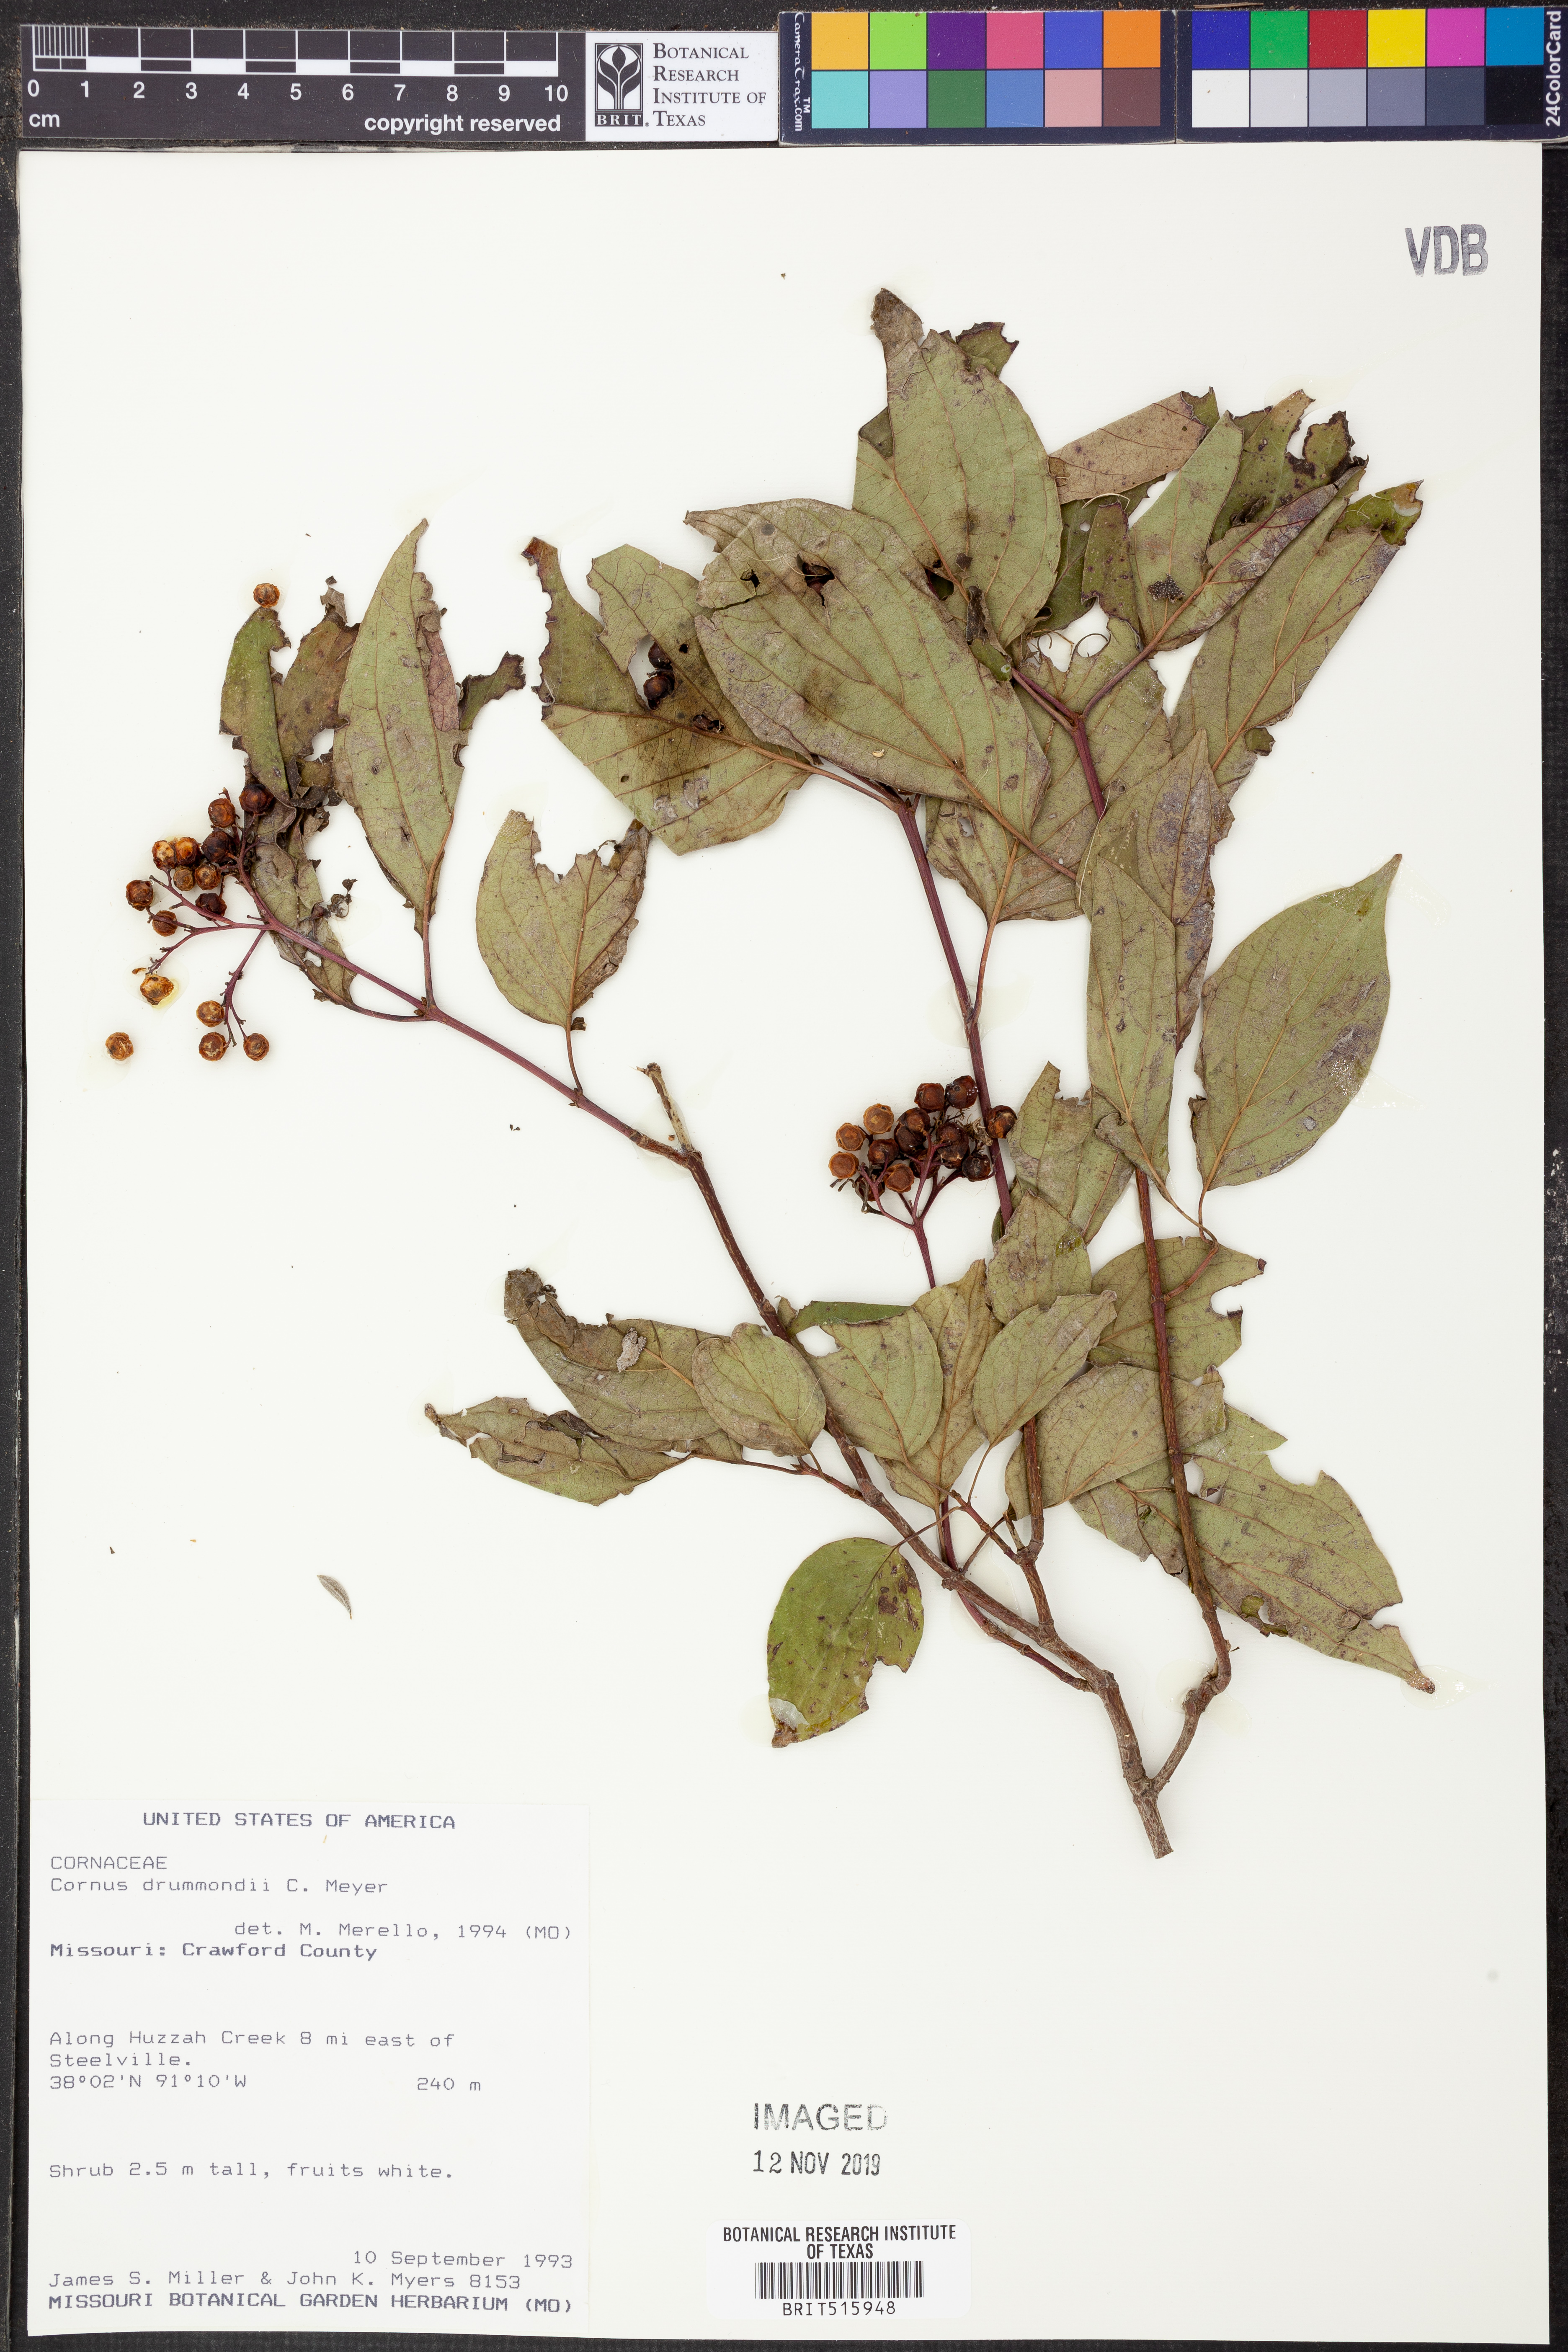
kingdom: Plantae
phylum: Tracheophyta
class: Magnoliopsida
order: Cornales
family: Cornaceae
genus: Cornus
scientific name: Cornus drummondii
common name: Rough-leaf dogwood
